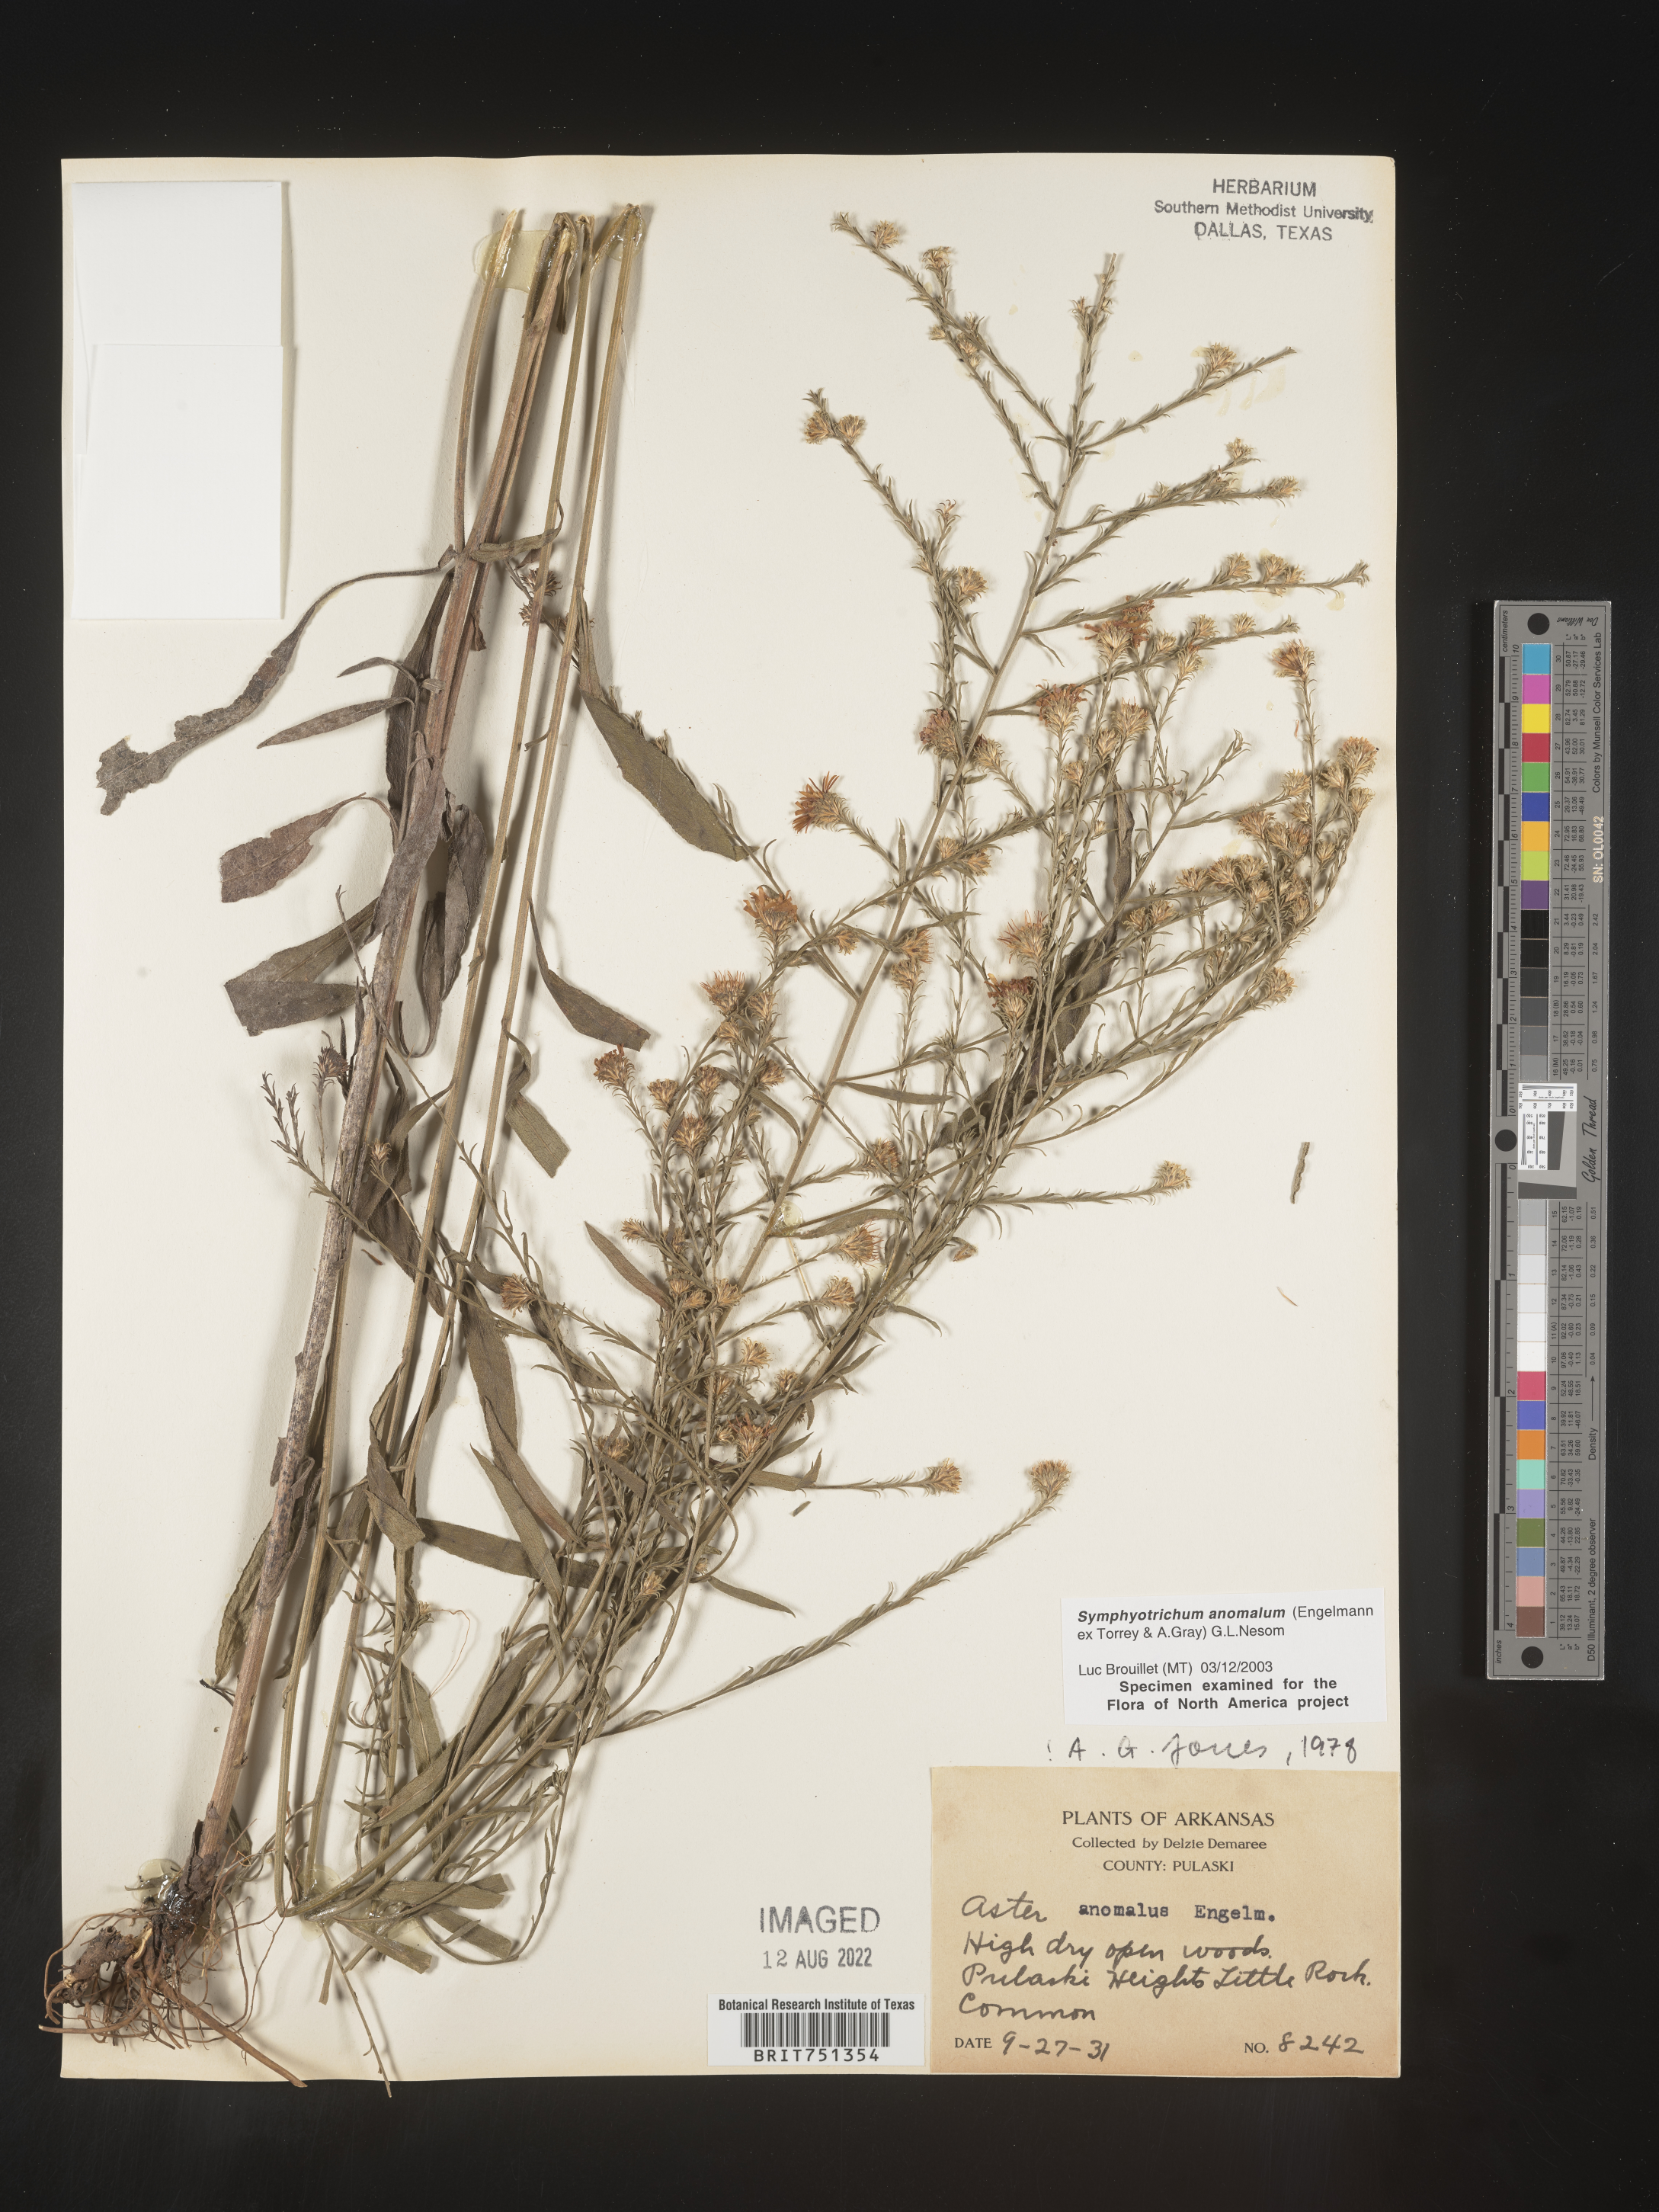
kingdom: Plantae
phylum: Tracheophyta
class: Magnoliopsida
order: Asterales
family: Asteraceae
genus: Symphyotrichum
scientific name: Symphyotrichum anomalum
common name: Many-ray aster
